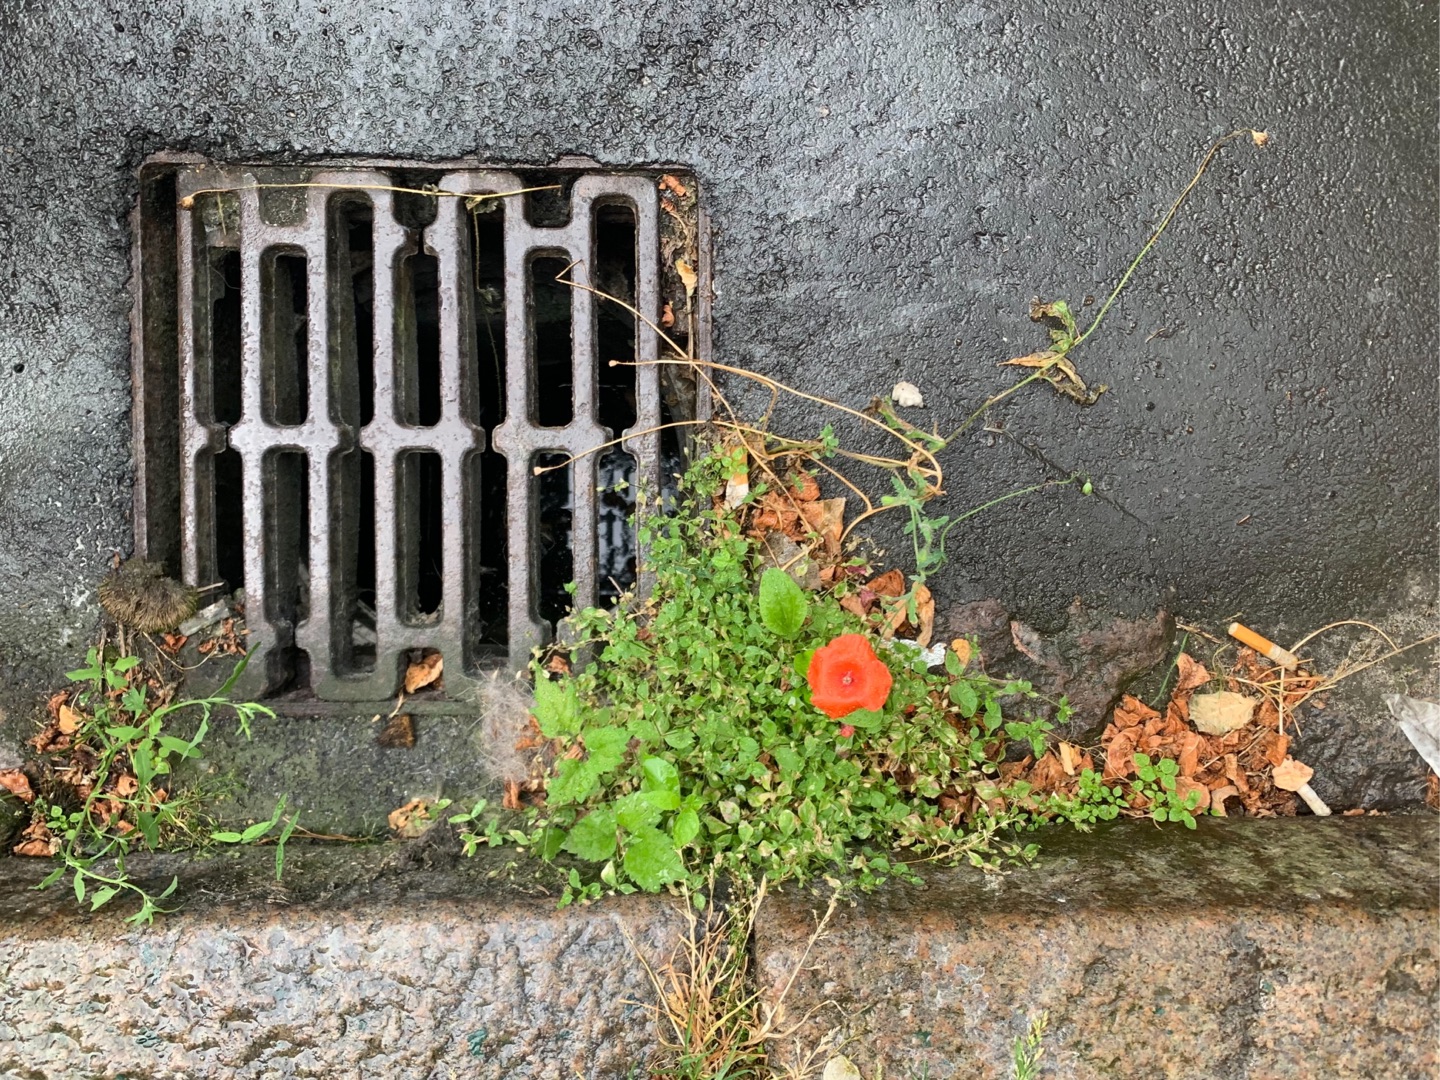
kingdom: Plantae
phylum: Tracheophyta
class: Magnoliopsida
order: Ranunculales
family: Papaveraceae
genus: Papaver
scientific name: Papaver dubium
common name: Gærde-valmue
